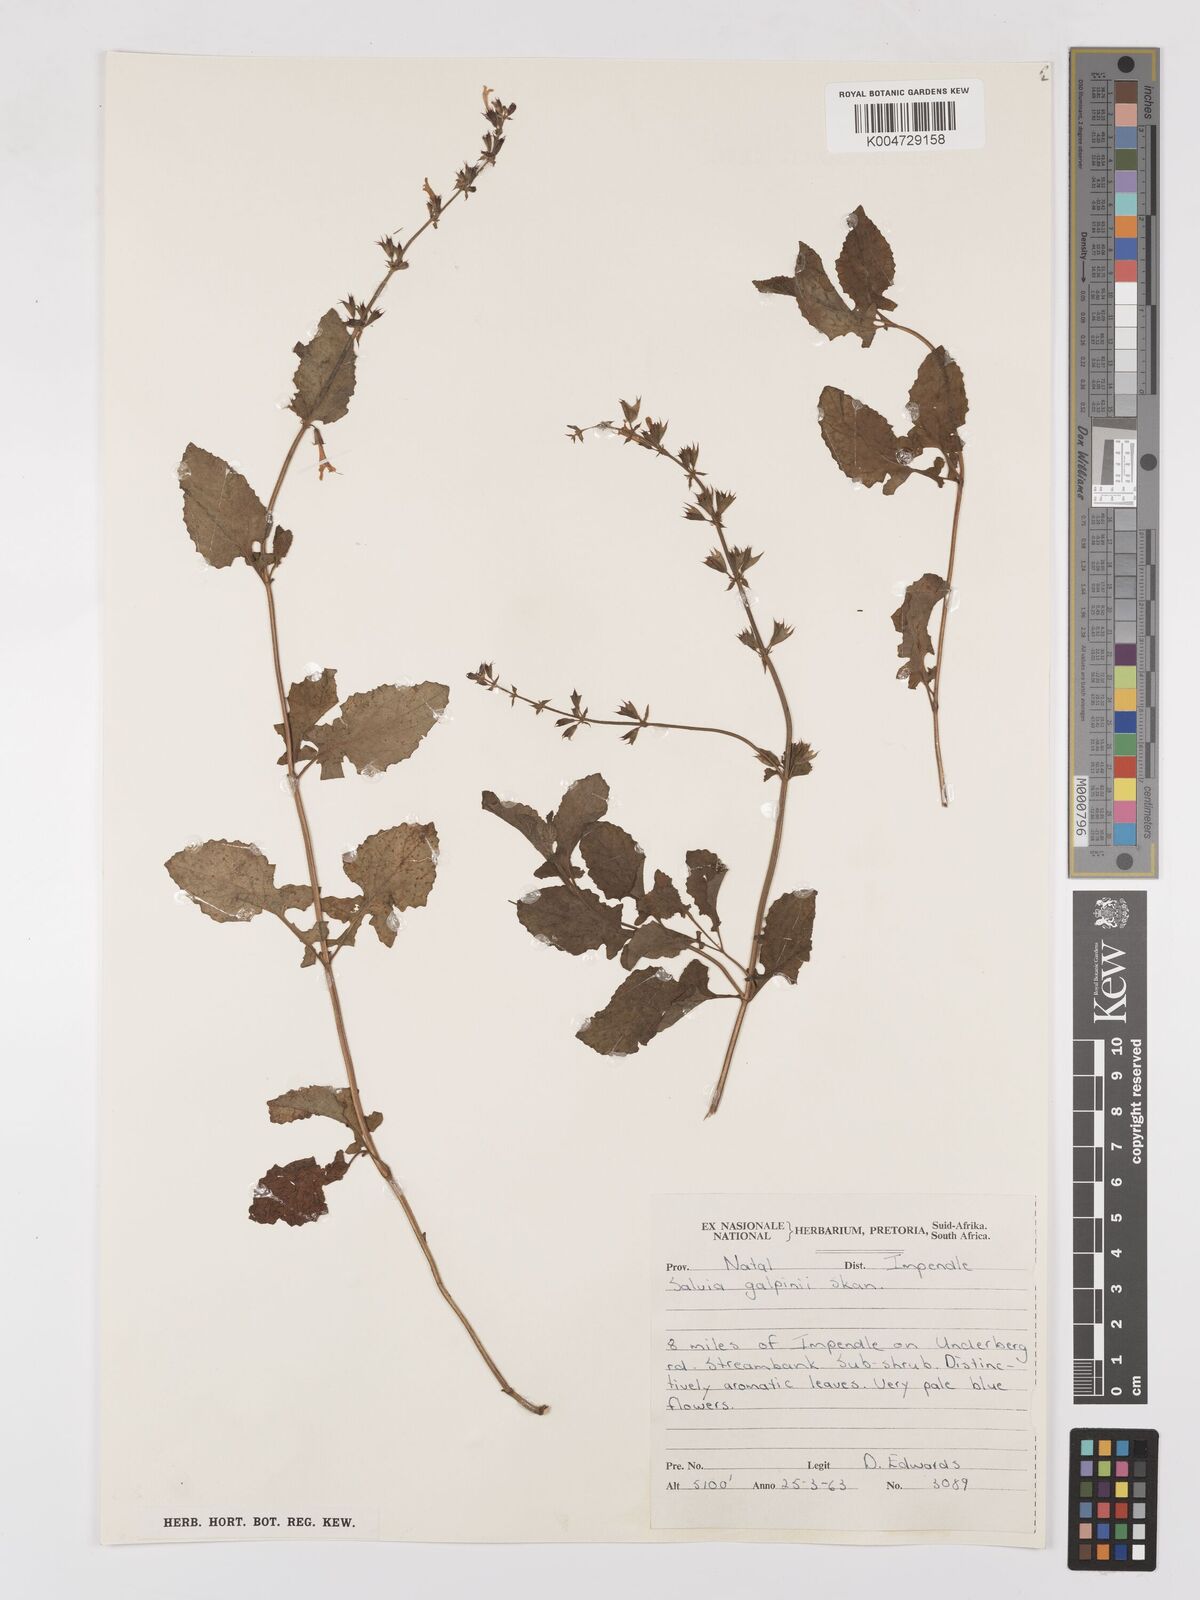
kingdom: Plantae
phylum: Tracheophyta
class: Magnoliopsida
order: Lamiales
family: Lamiaceae
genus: Salvia
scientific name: Salvia aurita
